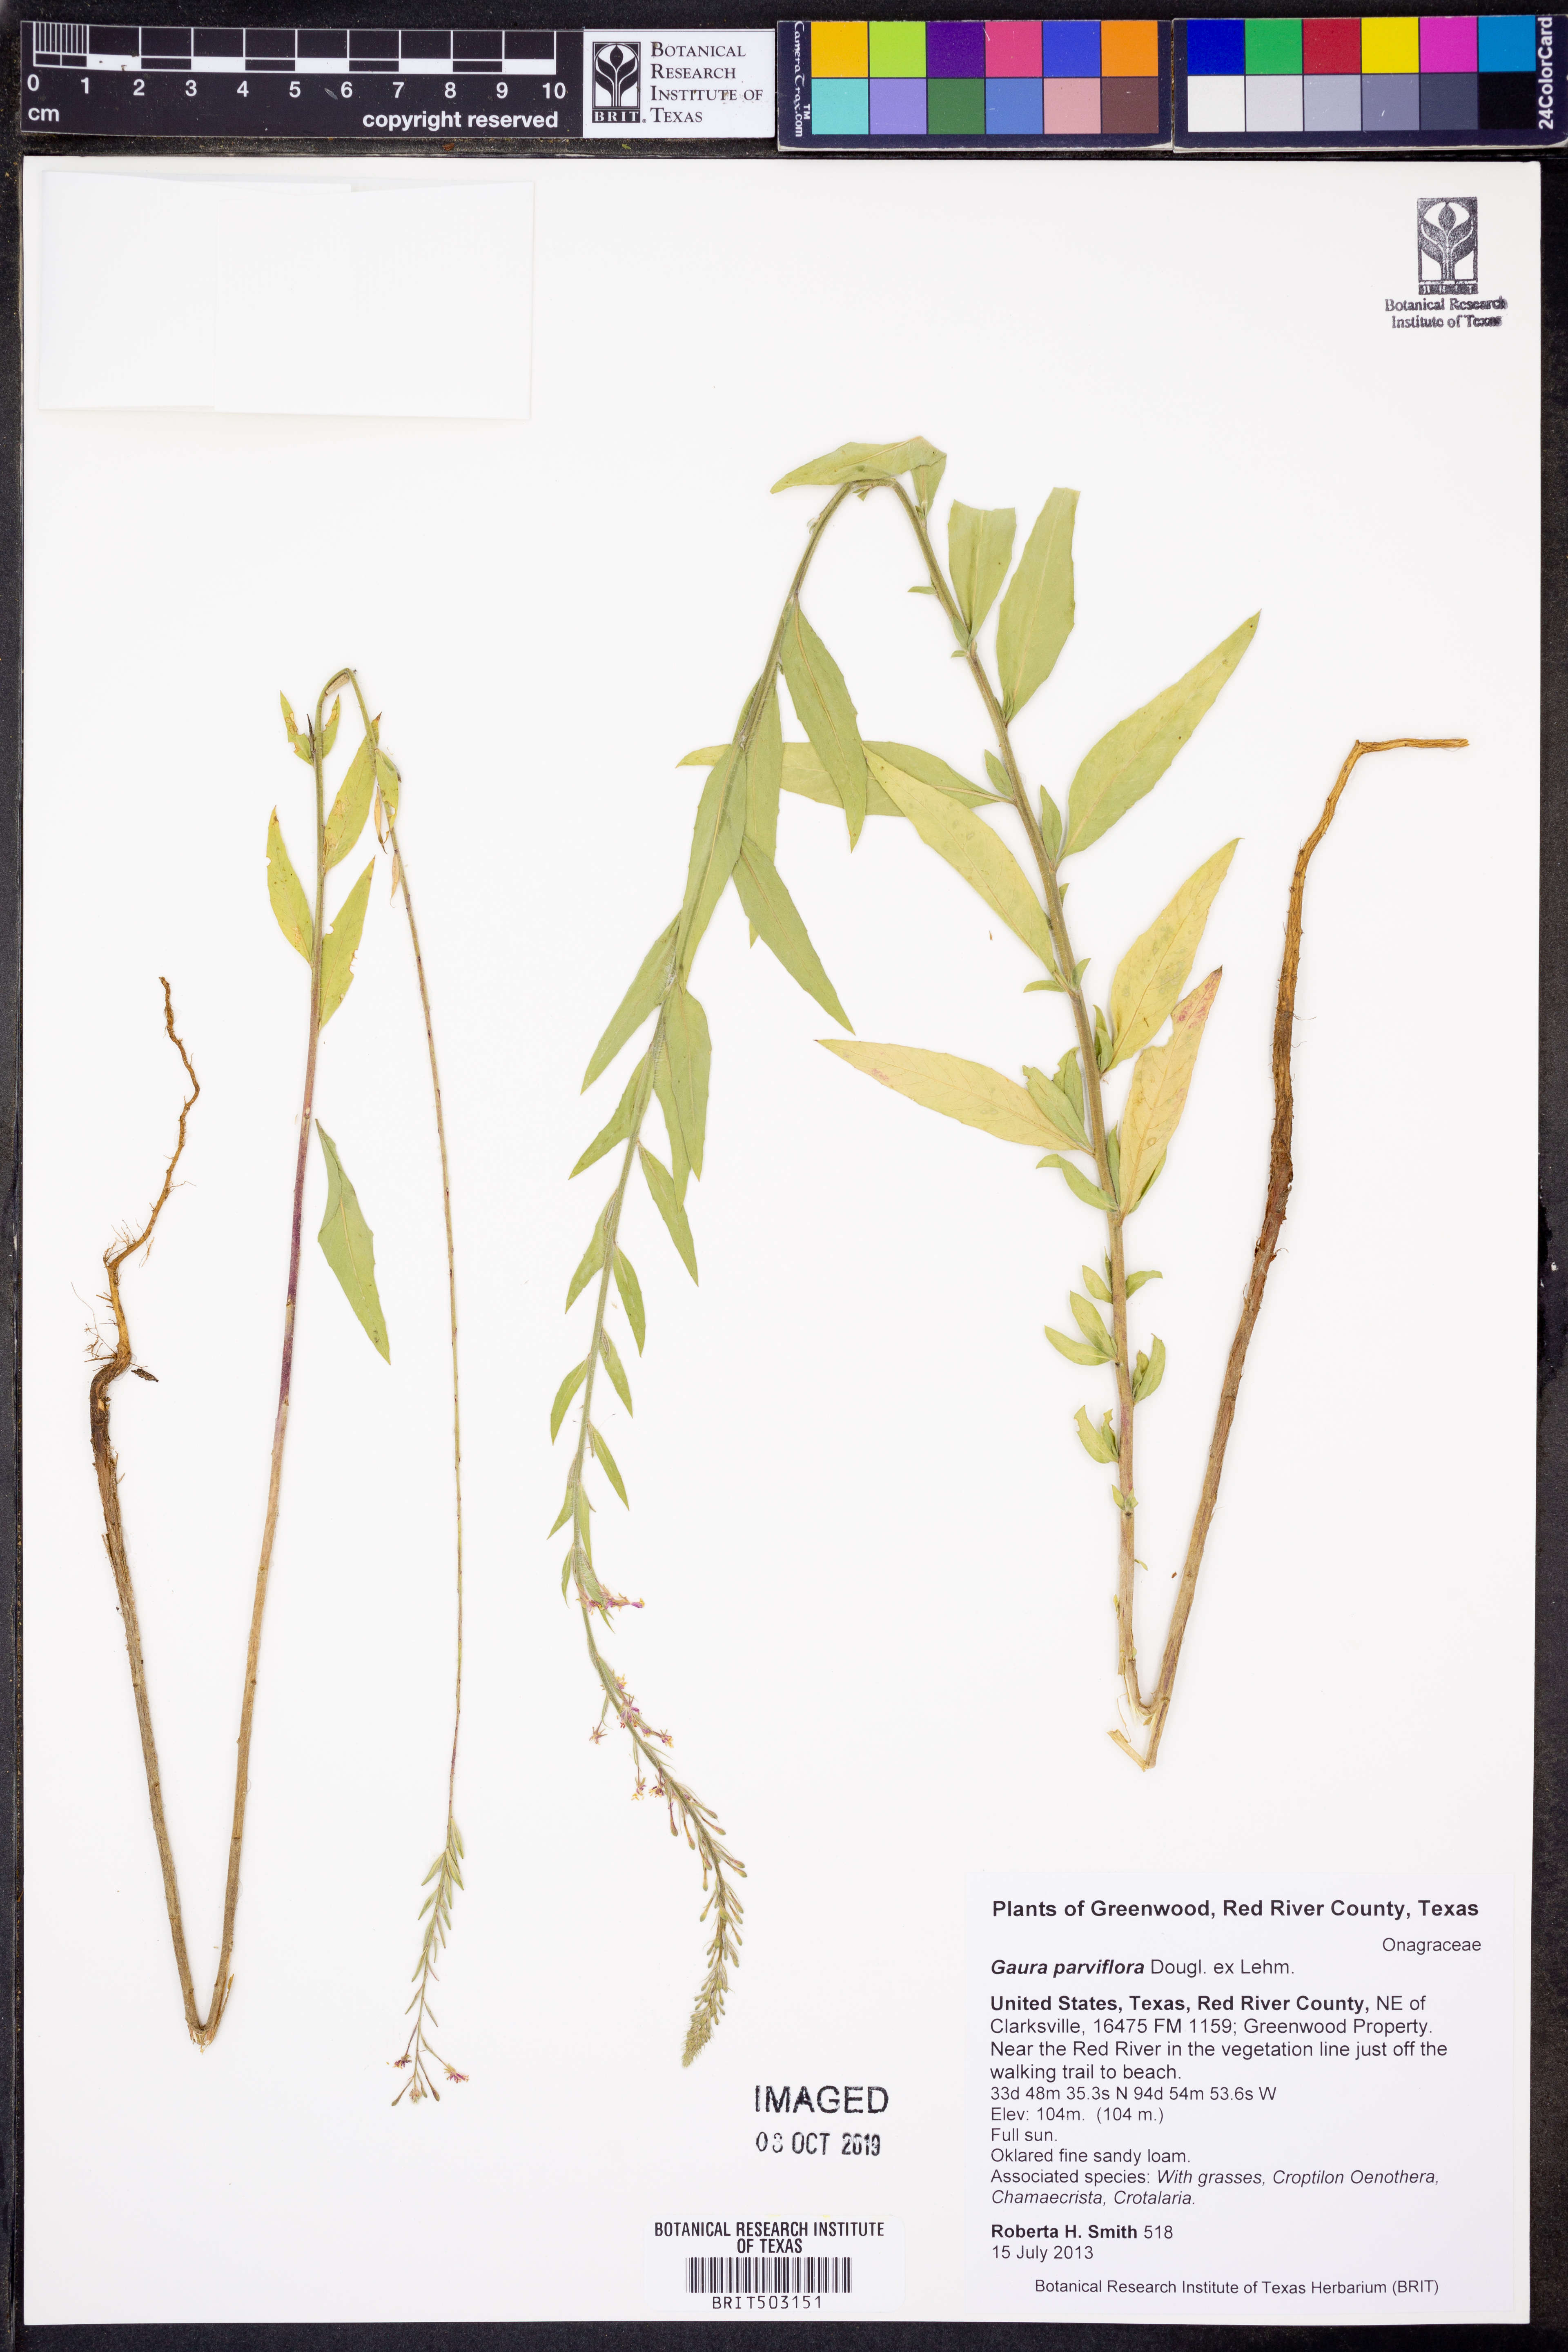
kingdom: Plantae
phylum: Tracheophyta
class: Magnoliopsida
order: Myrtales
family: Onagraceae
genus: Oenothera
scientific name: Oenothera curtiflora
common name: Velvetweed
